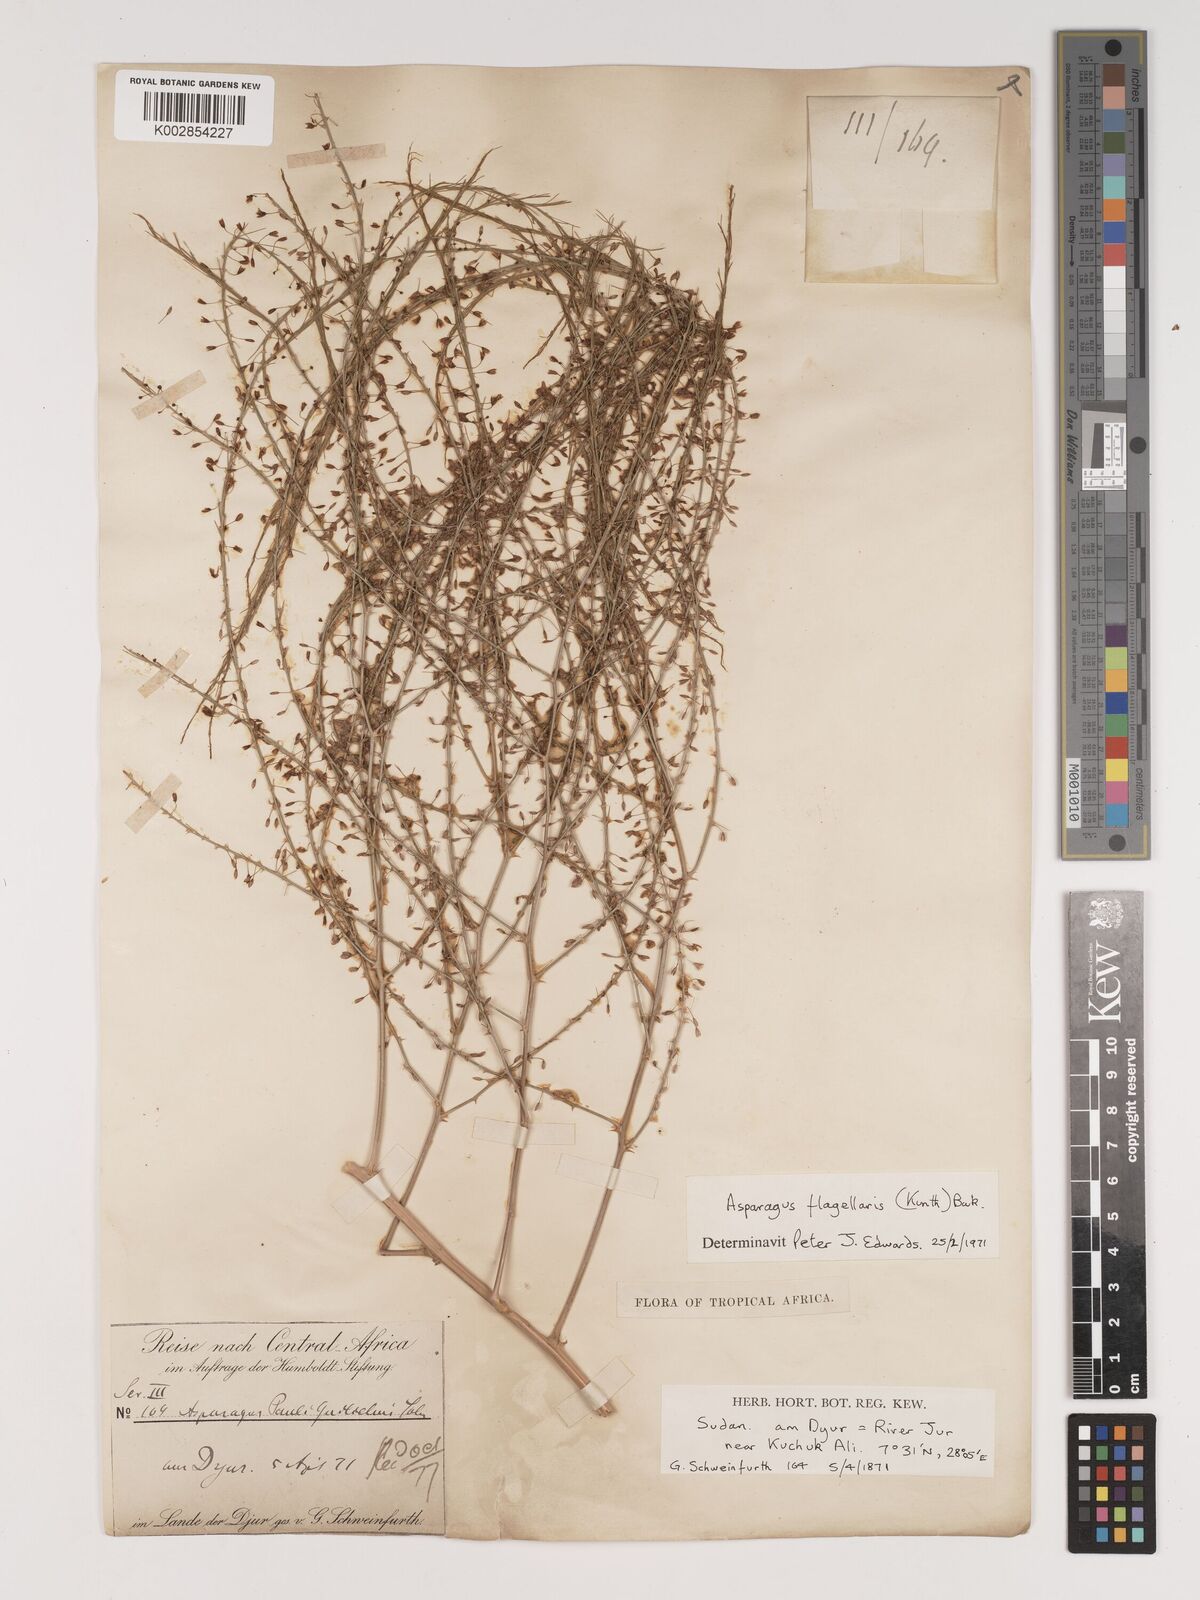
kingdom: Plantae
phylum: Tracheophyta
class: Liliopsida
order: Asparagales
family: Asparagaceae
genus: Asparagus
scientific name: Asparagus flagellaris
